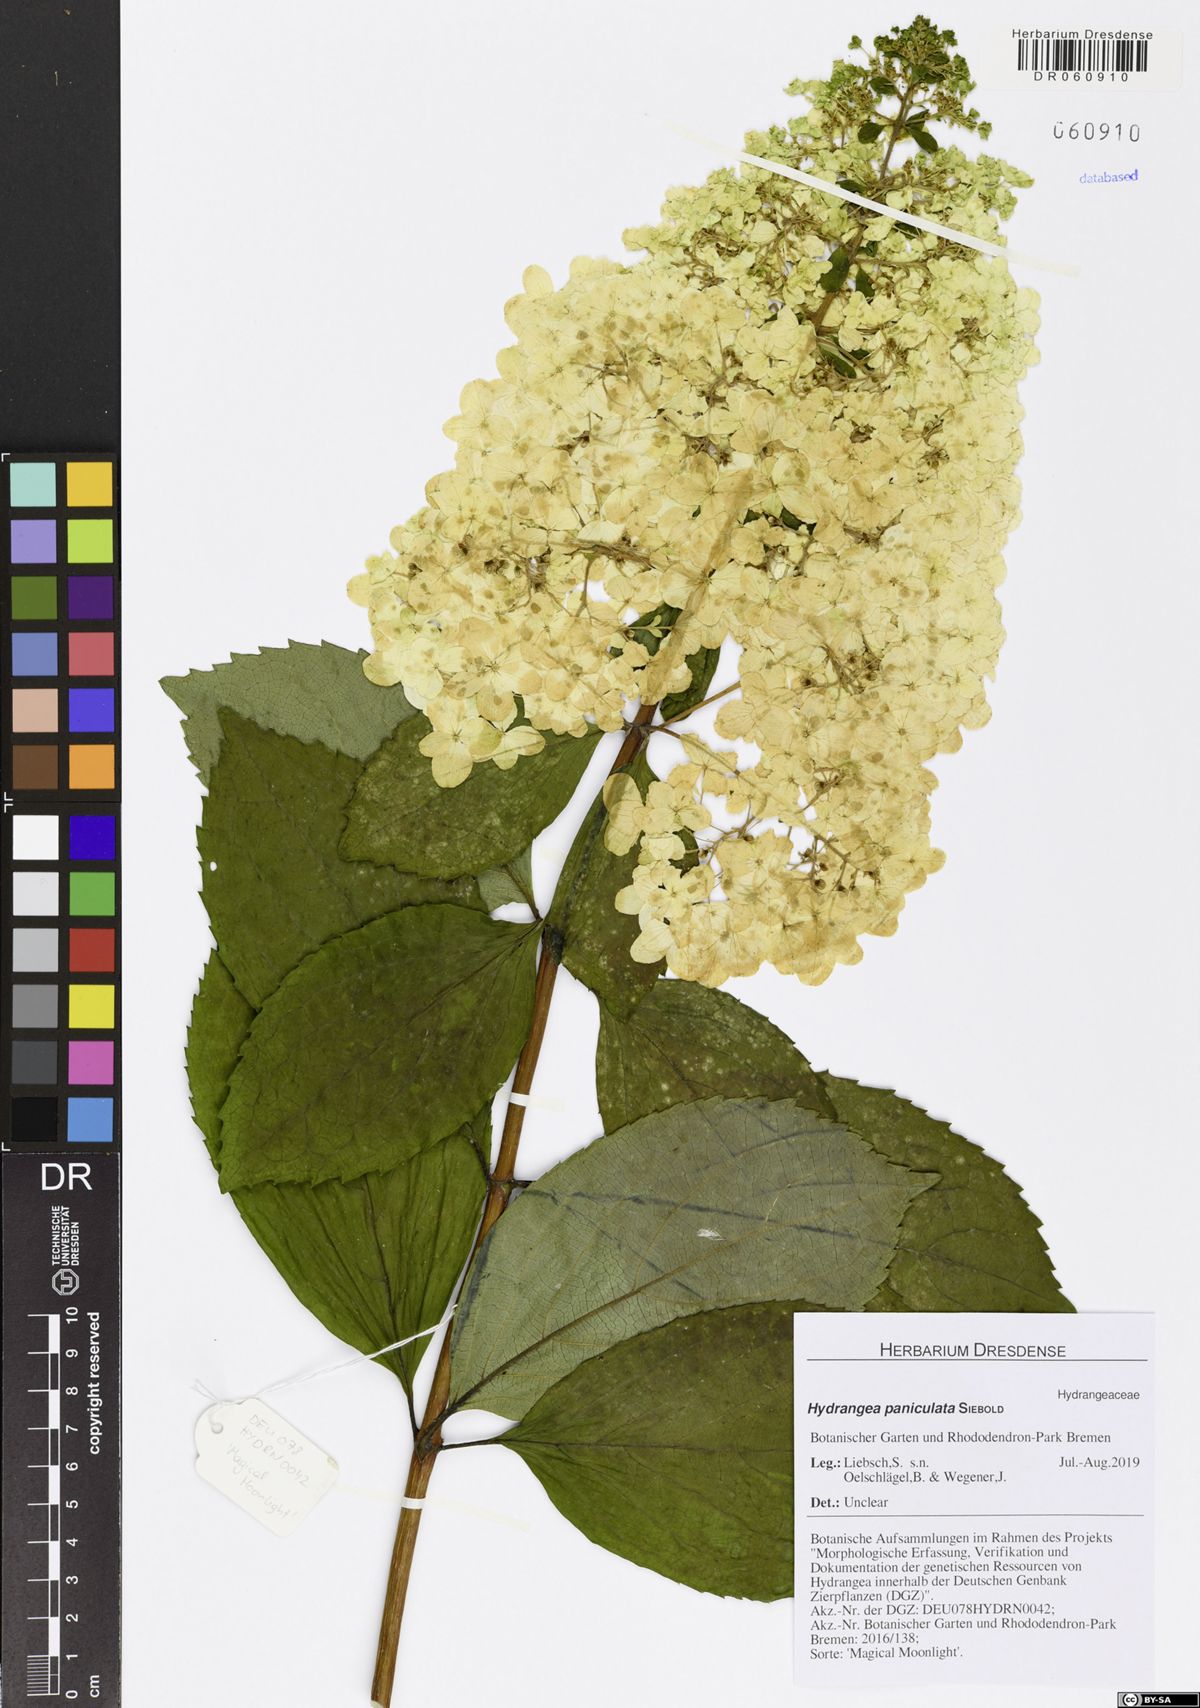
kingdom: Plantae
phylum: Tracheophyta
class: Magnoliopsida
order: Cornales
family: Hydrangeaceae
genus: Hydrangea
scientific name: Hydrangea paniculata
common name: Panicled hydrangea
